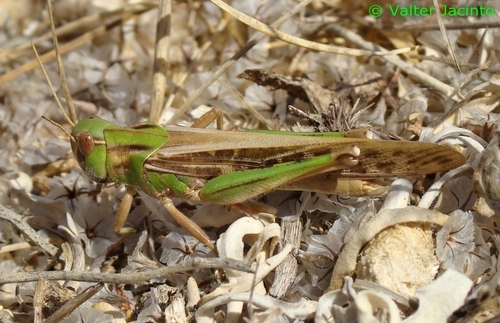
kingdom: Animalia
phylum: Arthropoda
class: Insecta
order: Orthoptera
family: Acrididae
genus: Locusta
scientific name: Locusta migratoria
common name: Migratory locust
